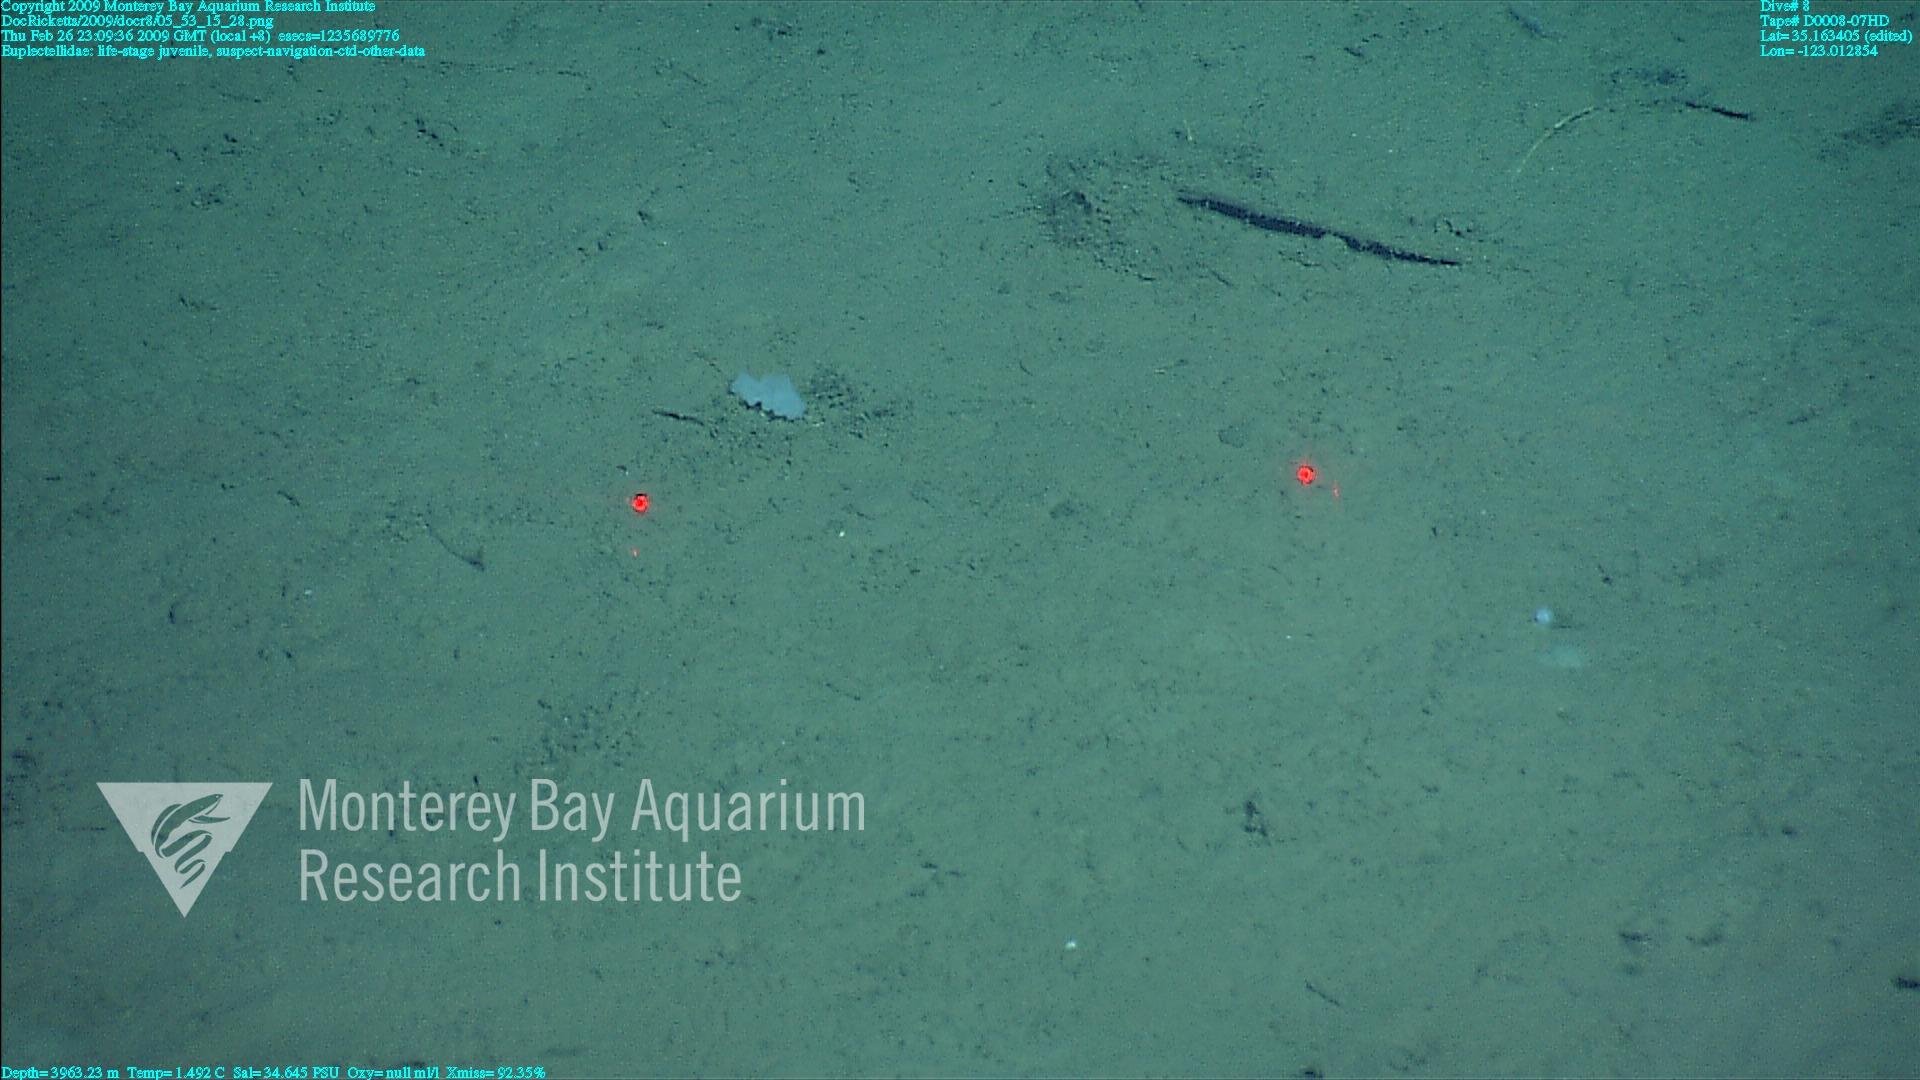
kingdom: Animalia
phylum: Porifera
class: Hexactinellida
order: Lyssacinosida
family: Euplectellidae
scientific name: Euplectellidae
